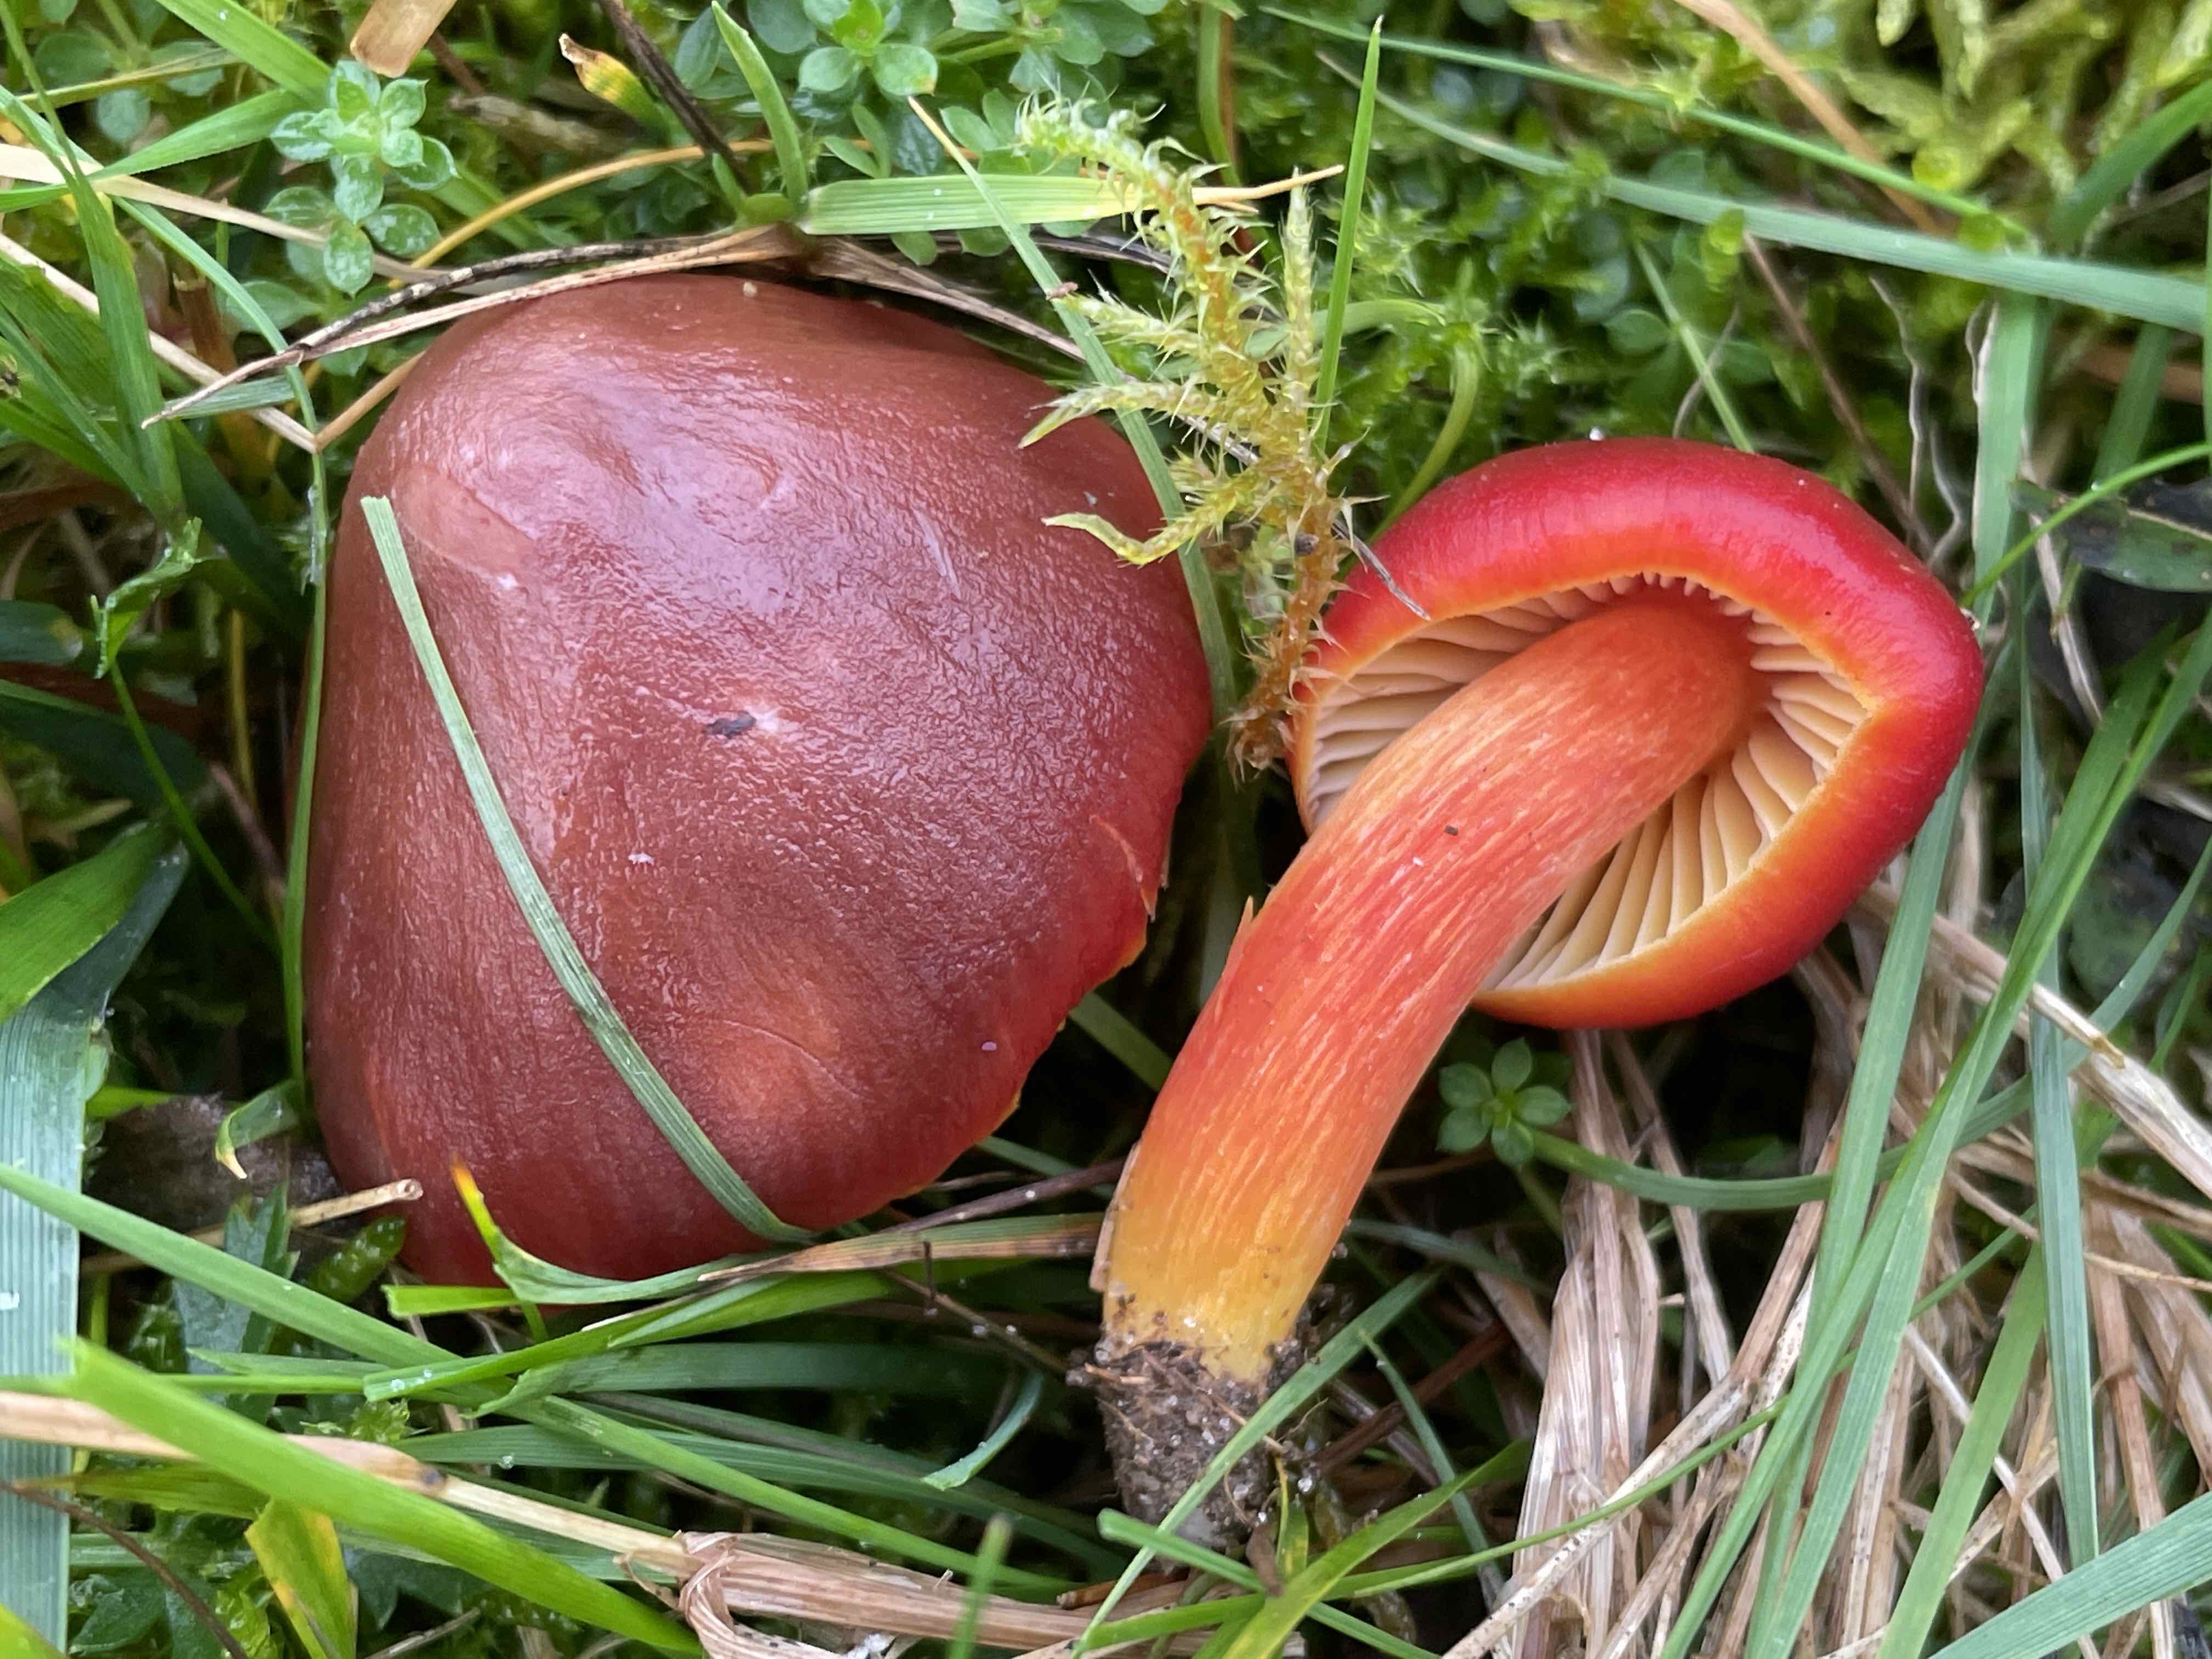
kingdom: Fungi
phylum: Basidiomycota
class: Agaricomycetes
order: Agaricales
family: Hygrophoraceae
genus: Hygrocybe
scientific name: Hygrocybe punicea
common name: skarlagen-vokshat
